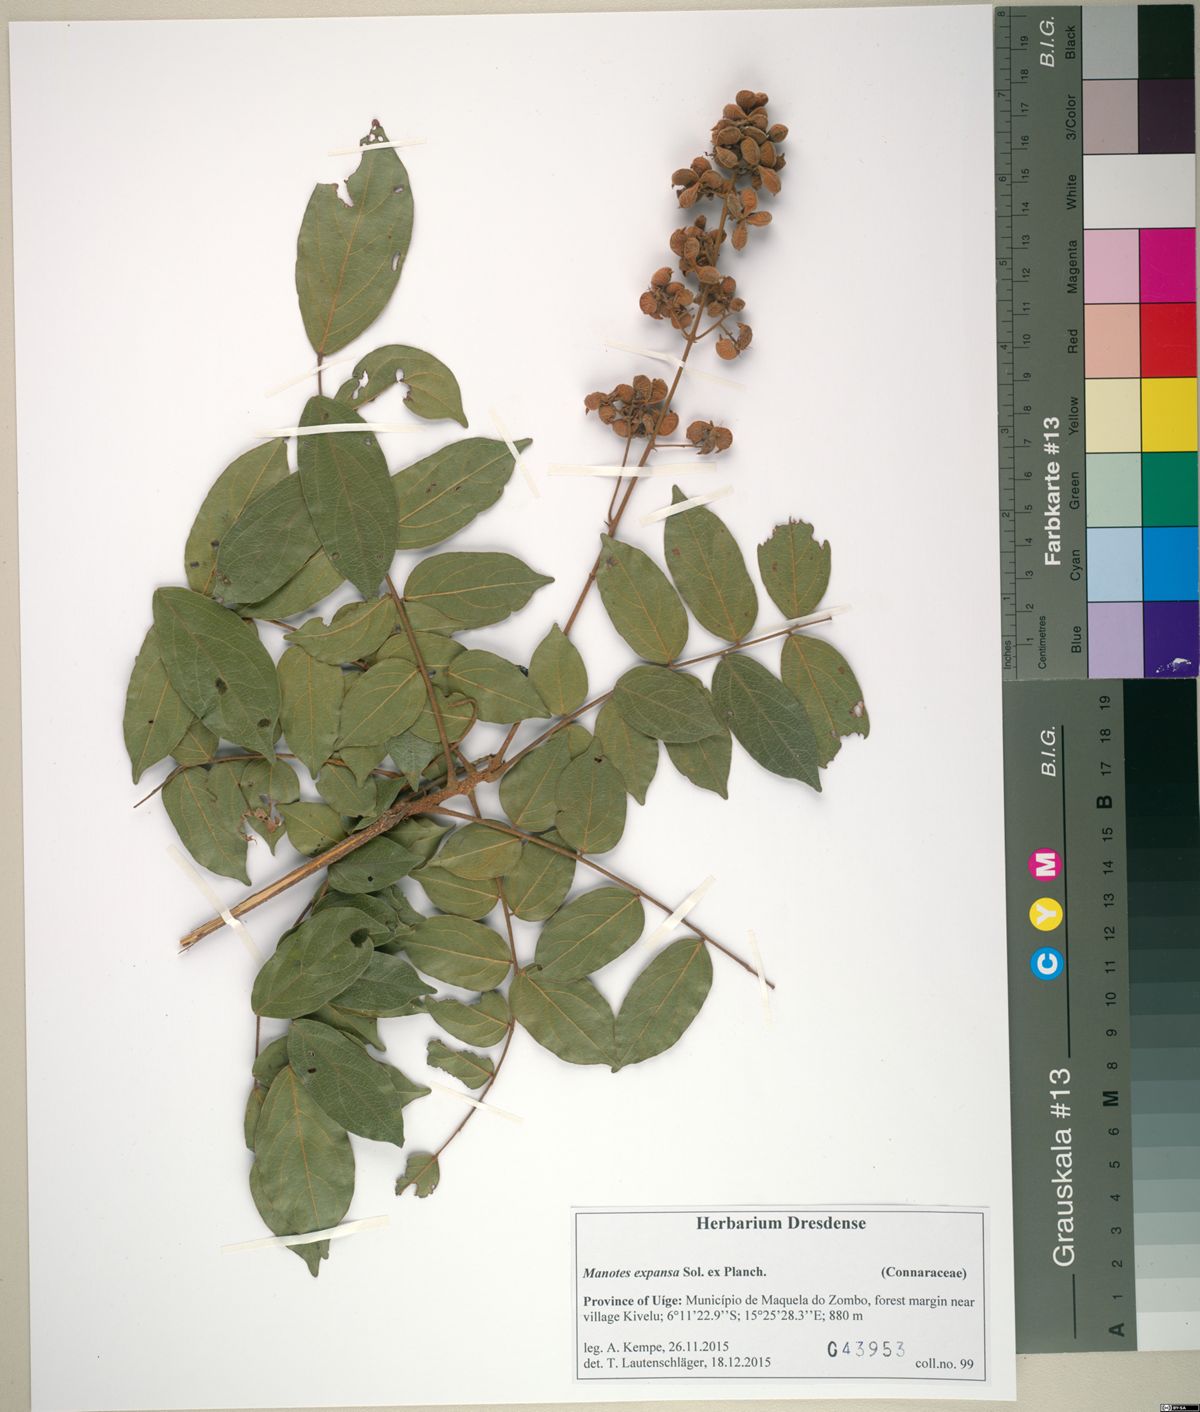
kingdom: Plantae
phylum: Tracheophyta
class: Magnoliopsida
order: Oxalidales
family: Connaraceae
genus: Manotes
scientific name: Manotes expansa
